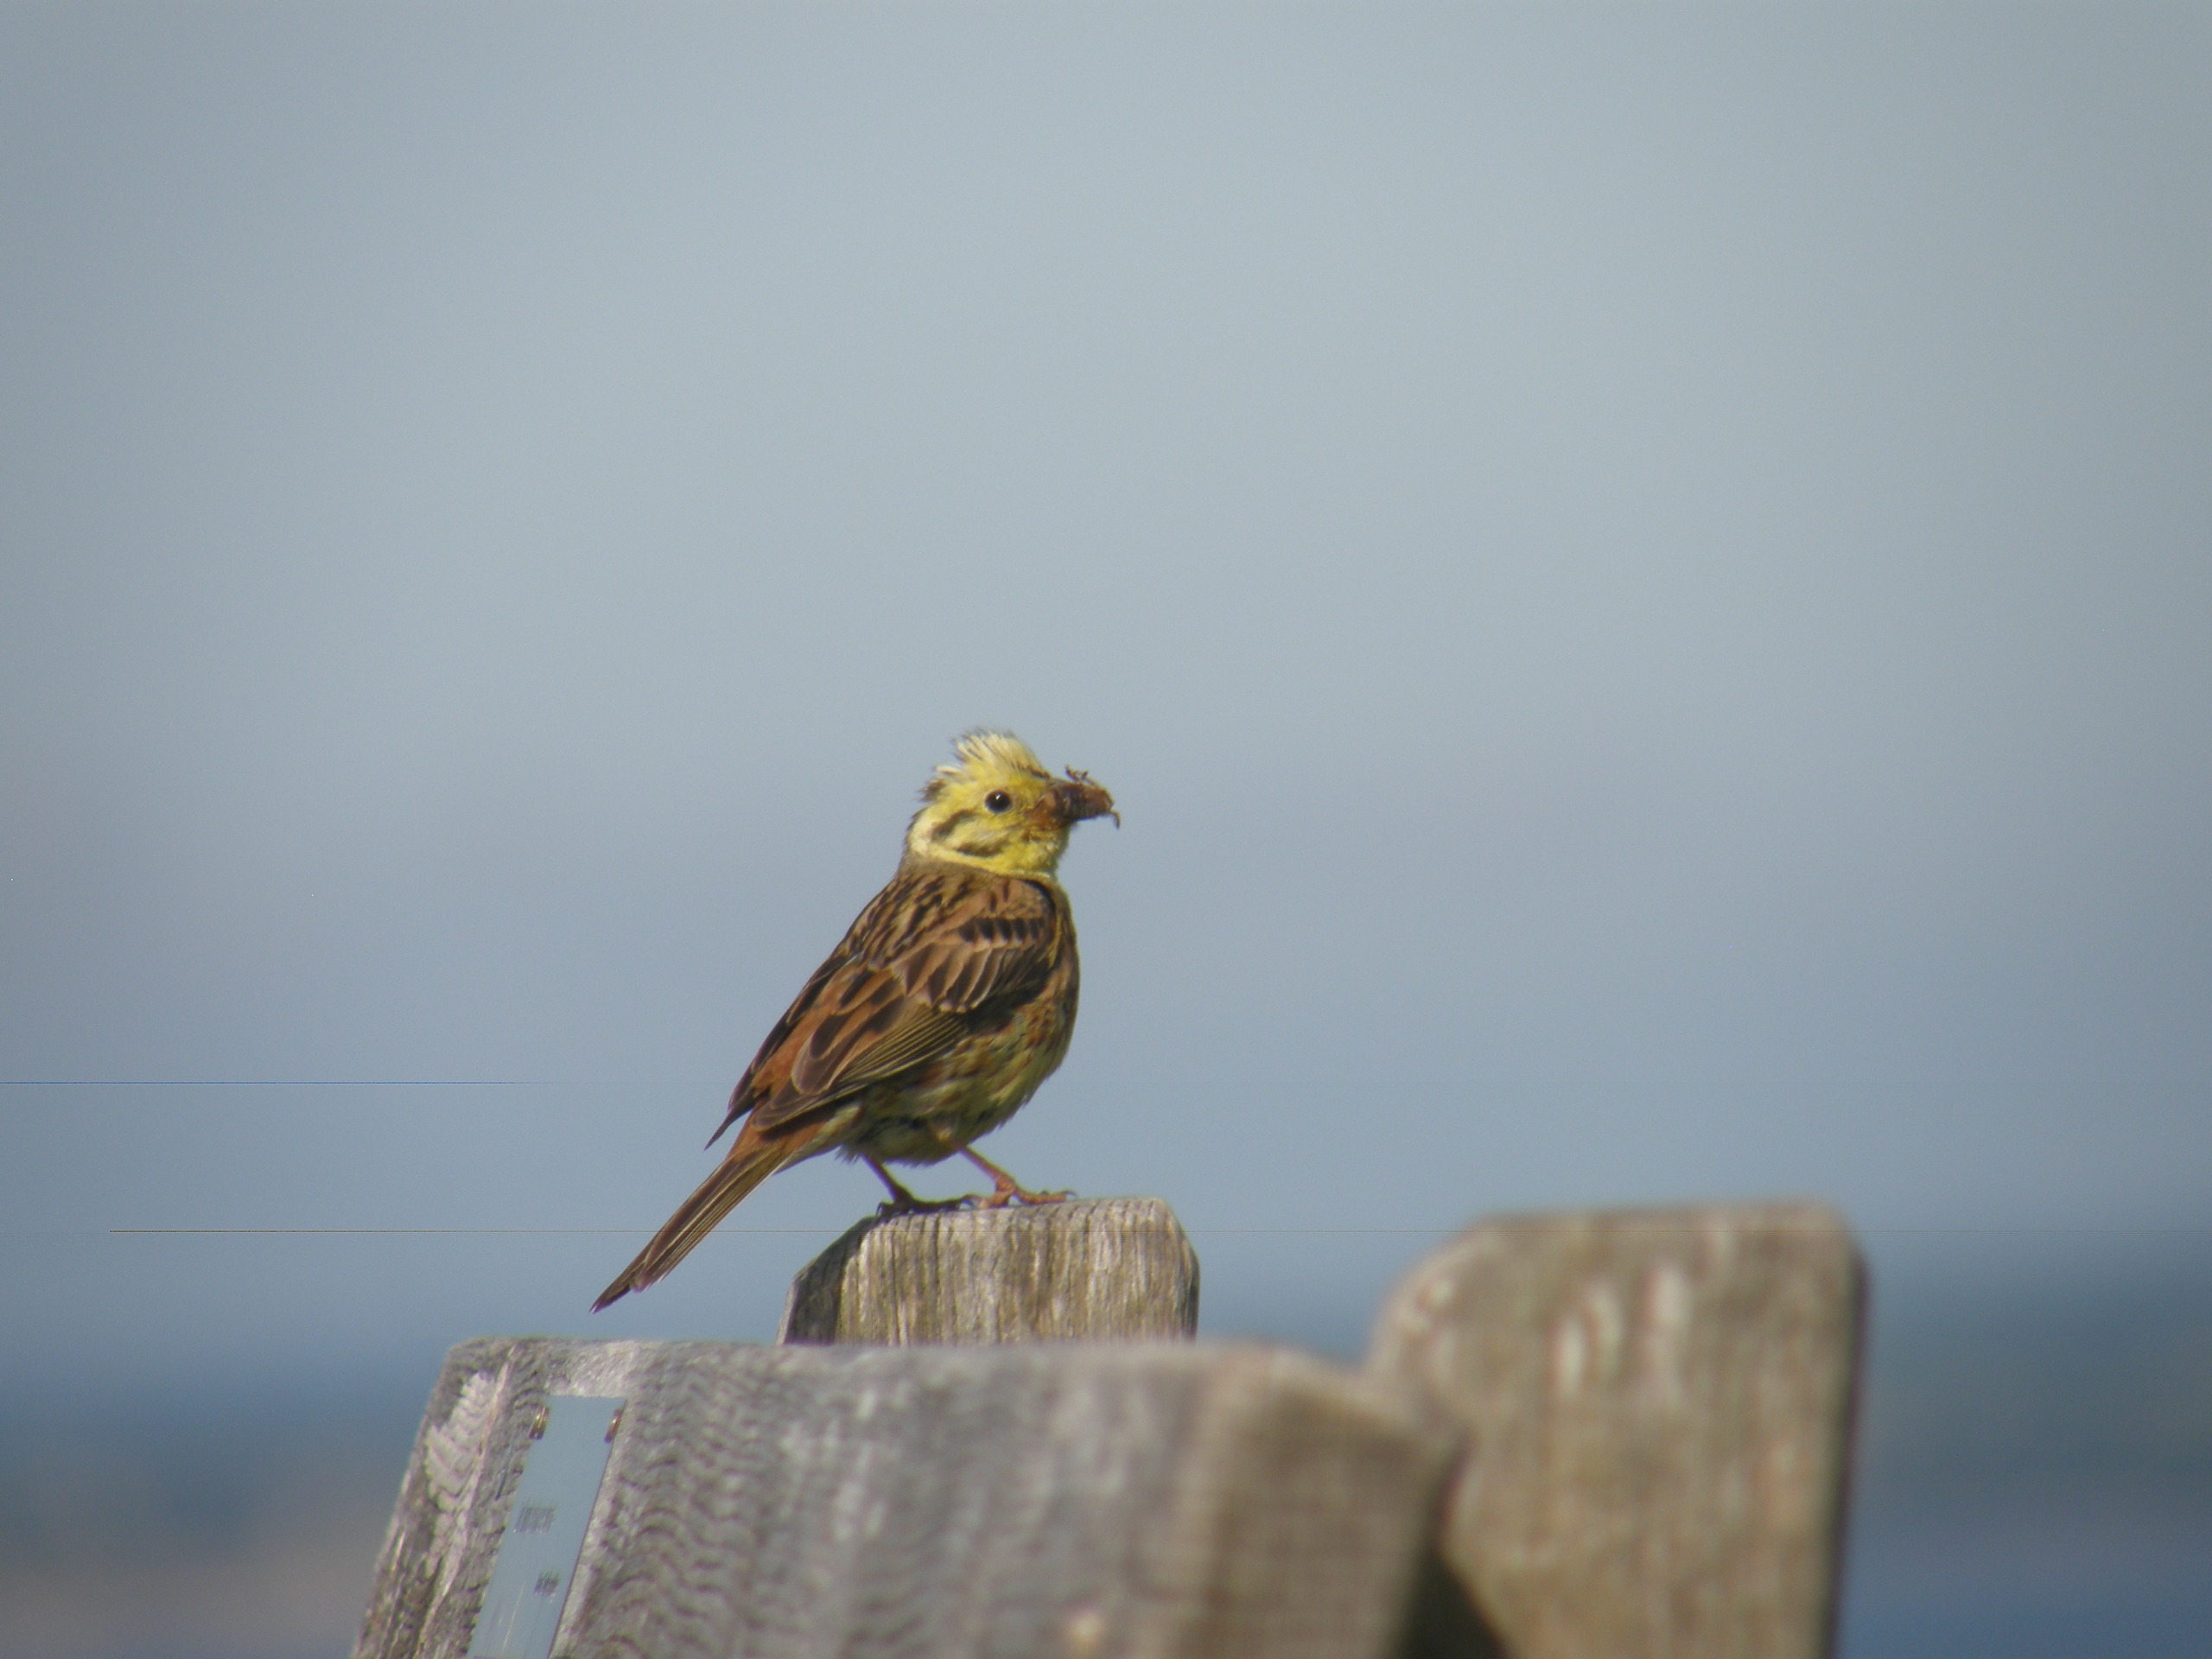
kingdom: Animalia
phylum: Chordata
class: Aves
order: Passeriformes
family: Emberizidae
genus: Emberiza
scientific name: Emberiza citrinella
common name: Gulspurv
